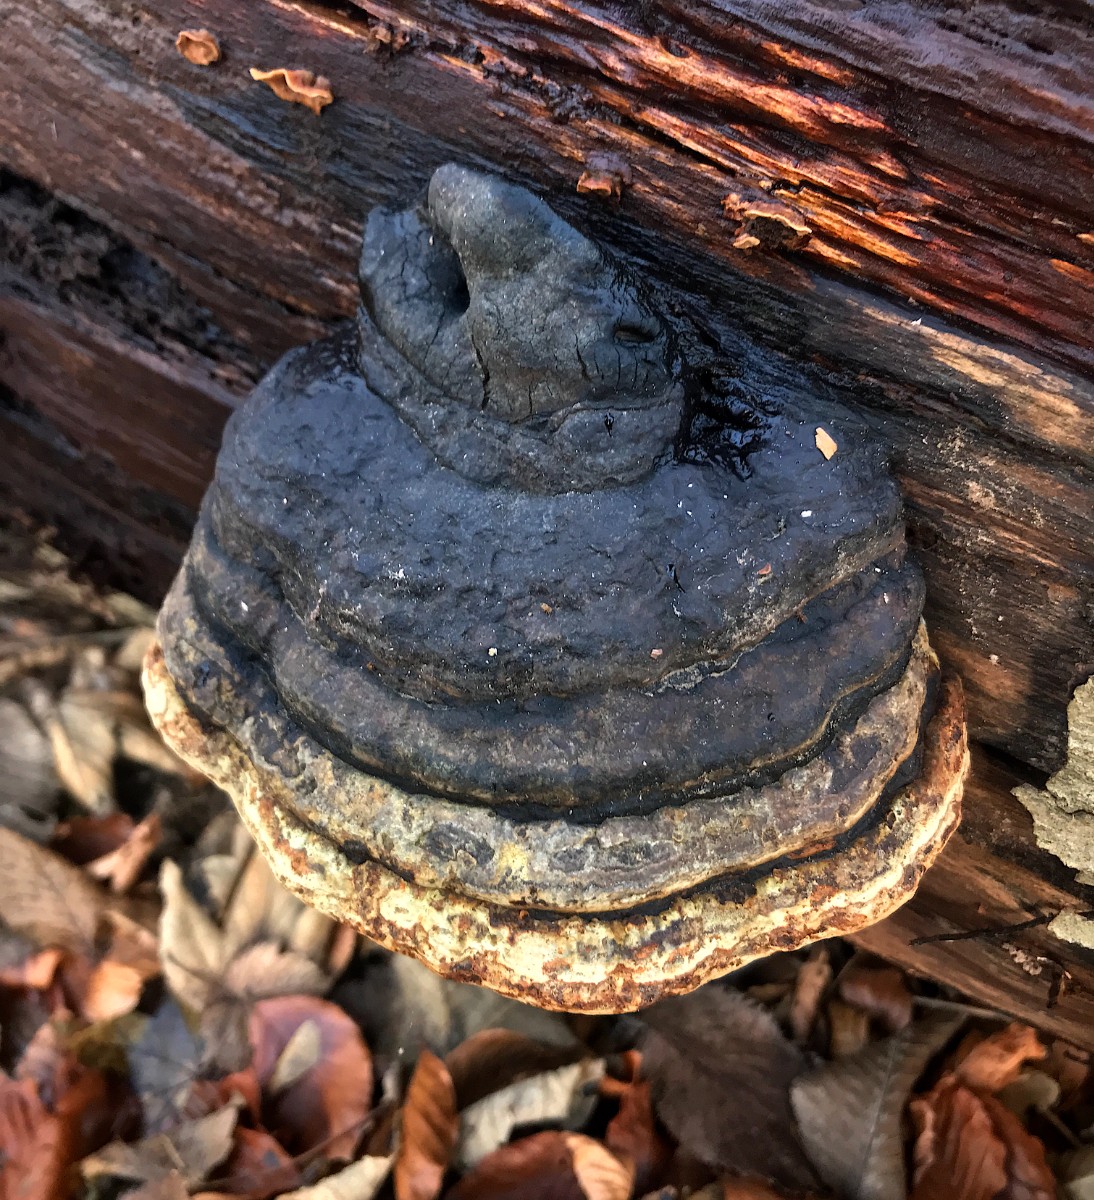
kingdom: Fungi
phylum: Basidiomycota
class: Agaricomycetes
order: Polyporales
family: Fomitopsidaceae
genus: Fomitopsis
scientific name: Fomitopsis pinicola
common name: randbæltet hovporesvamp
